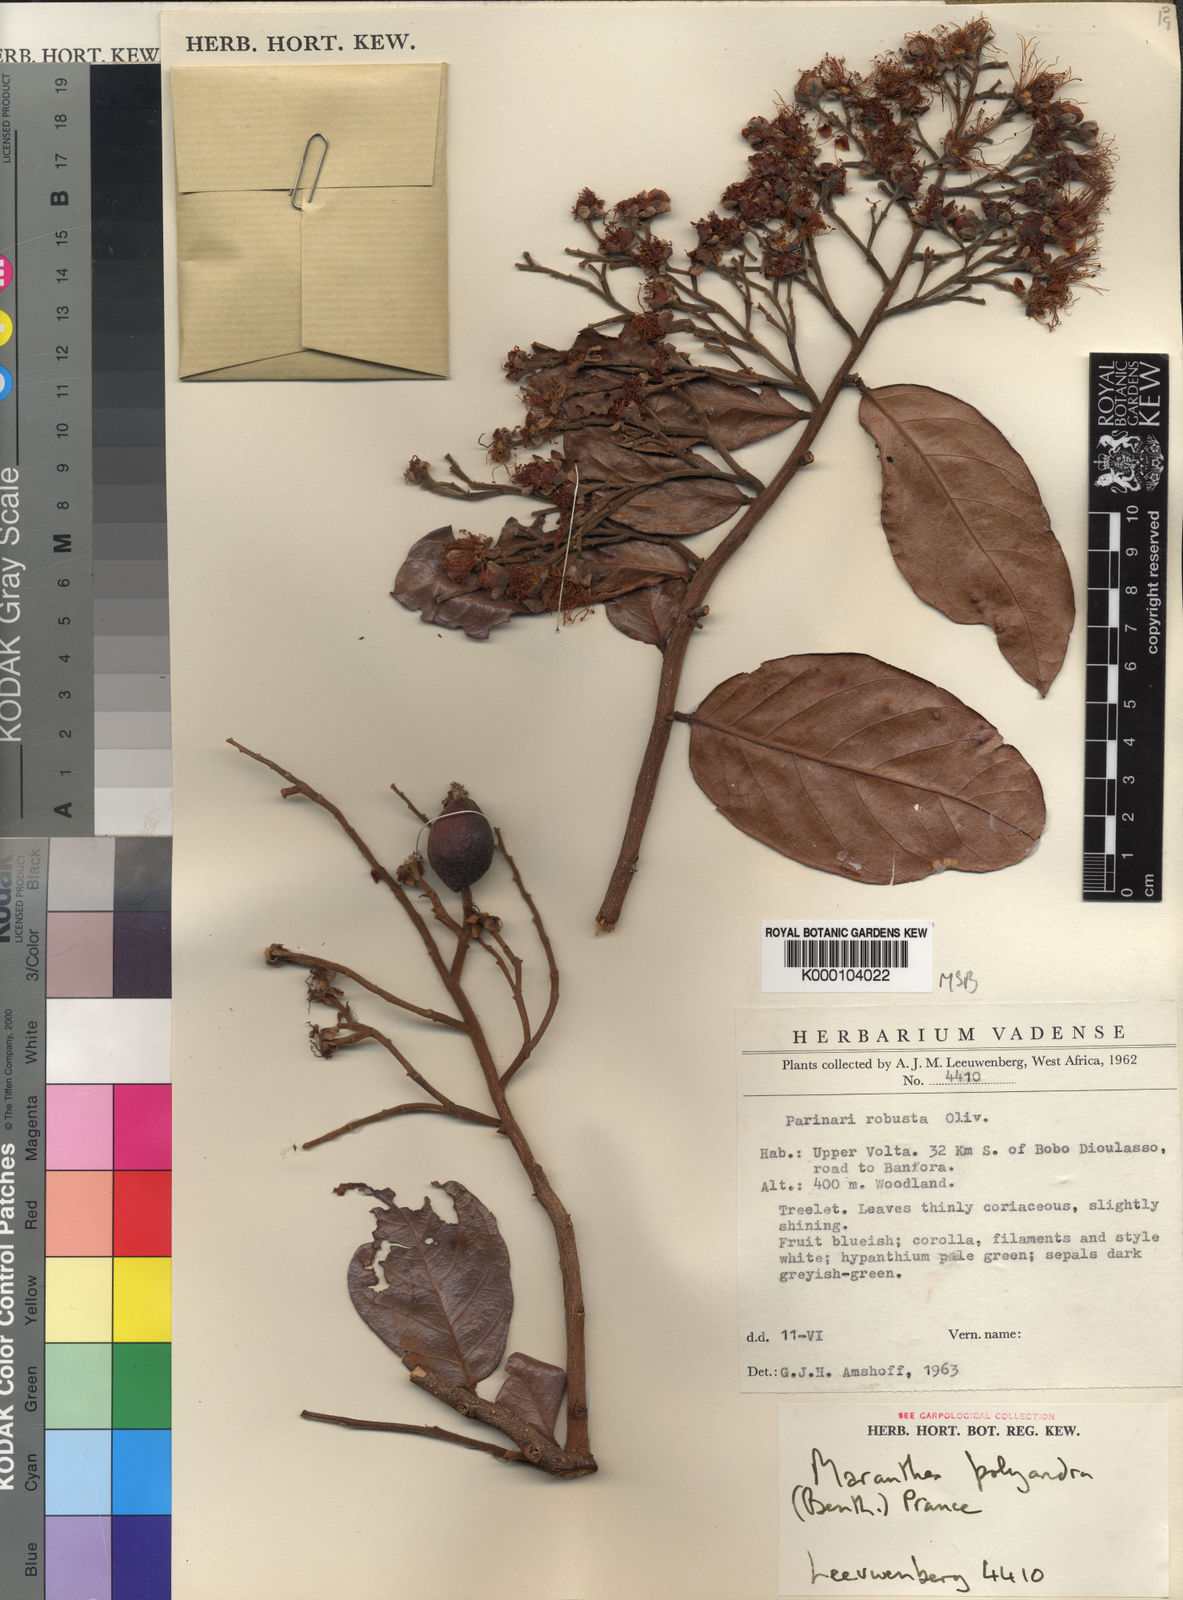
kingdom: Plantae
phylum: Tracheophyta
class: Magnoliopsida
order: Malpighiales
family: Chrysobalanaceae
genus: Maranthes
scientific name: Maranthes polyandra
